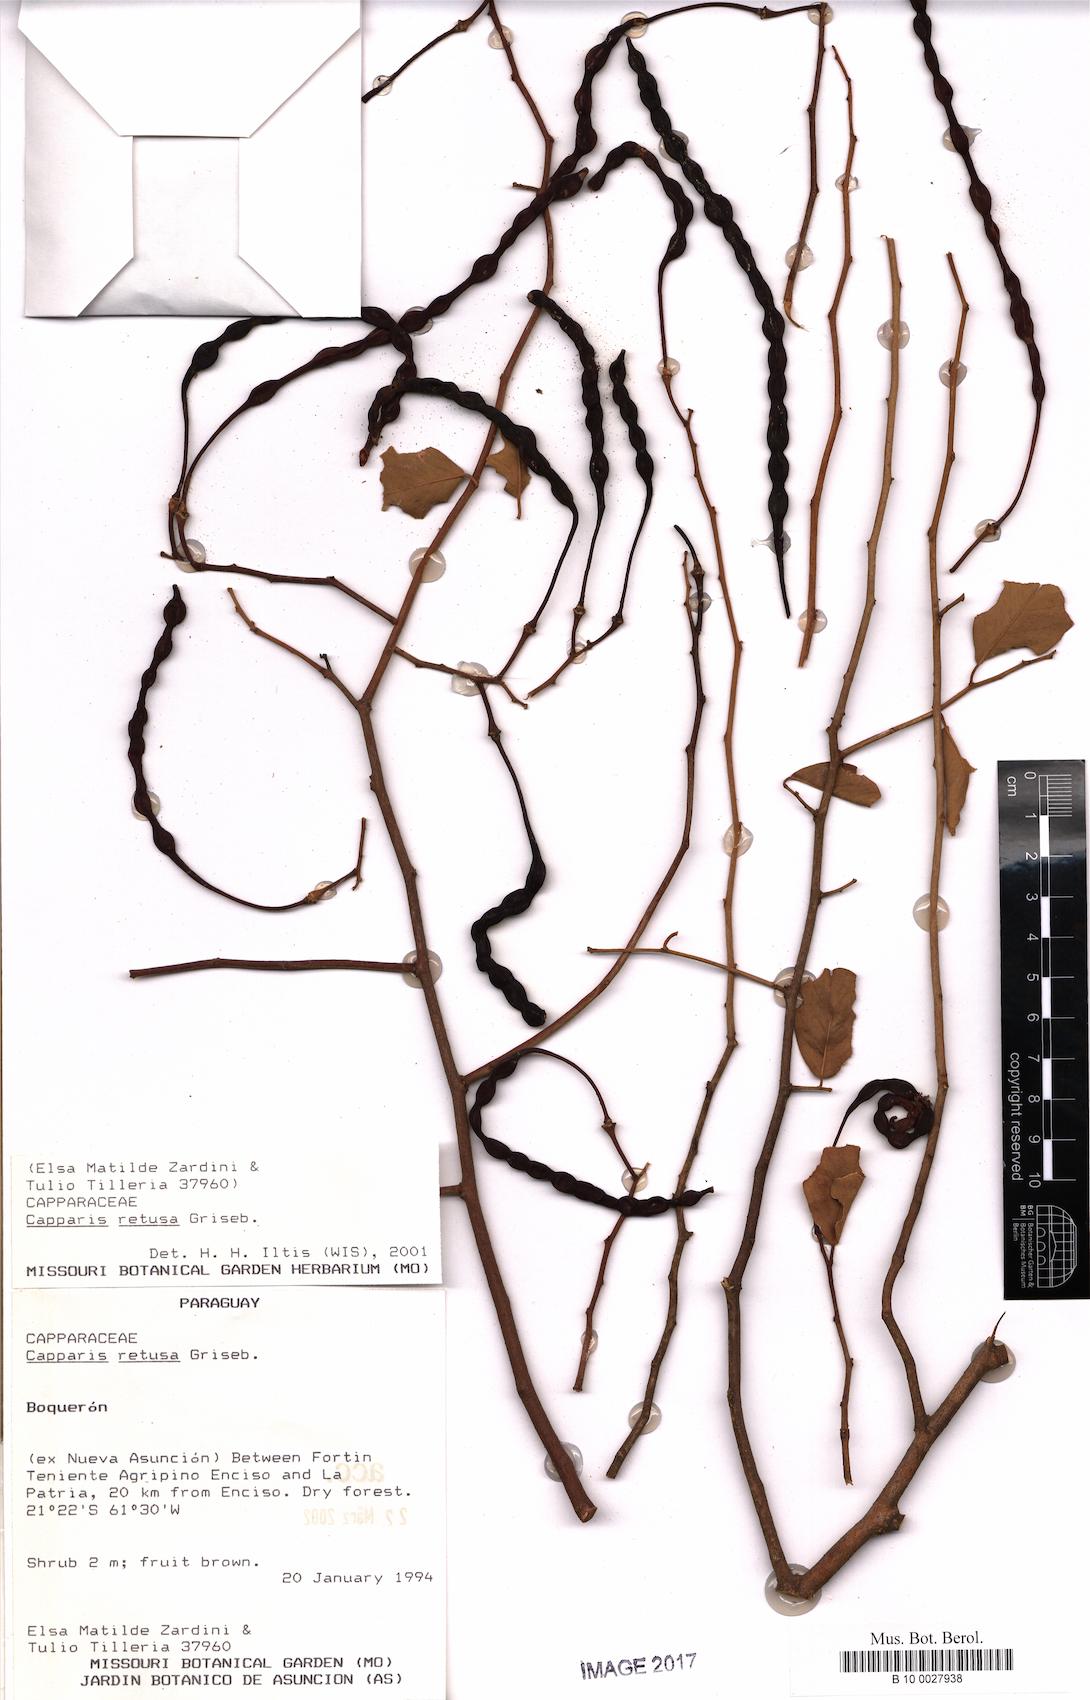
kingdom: Plantae
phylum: Tracheophyta
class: Magnoliopsida
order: Brassicales
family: Capparaceae
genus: Cynophalla
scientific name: Cynophalla retusa
